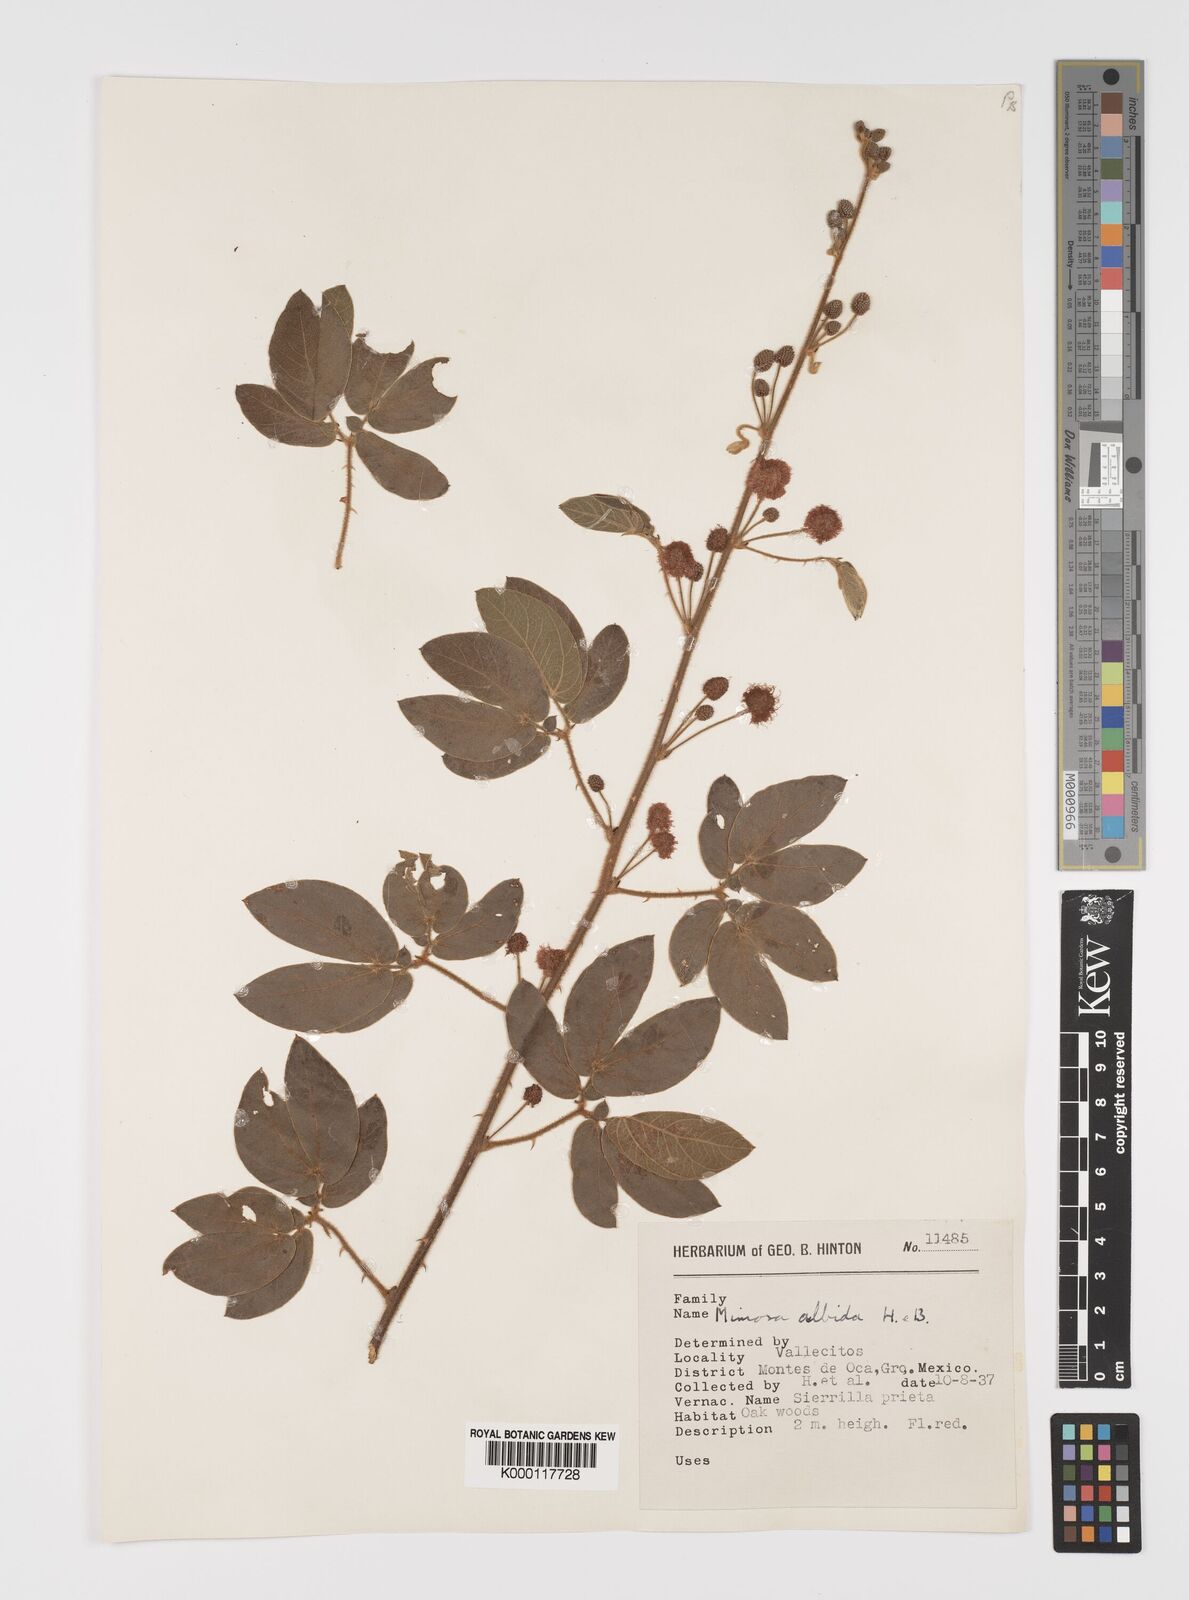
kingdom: Plantae
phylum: Tracheophyta
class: Magnoliopsida
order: Fabales
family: Fabaceae
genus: Mimosa
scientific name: Mimosa albida
